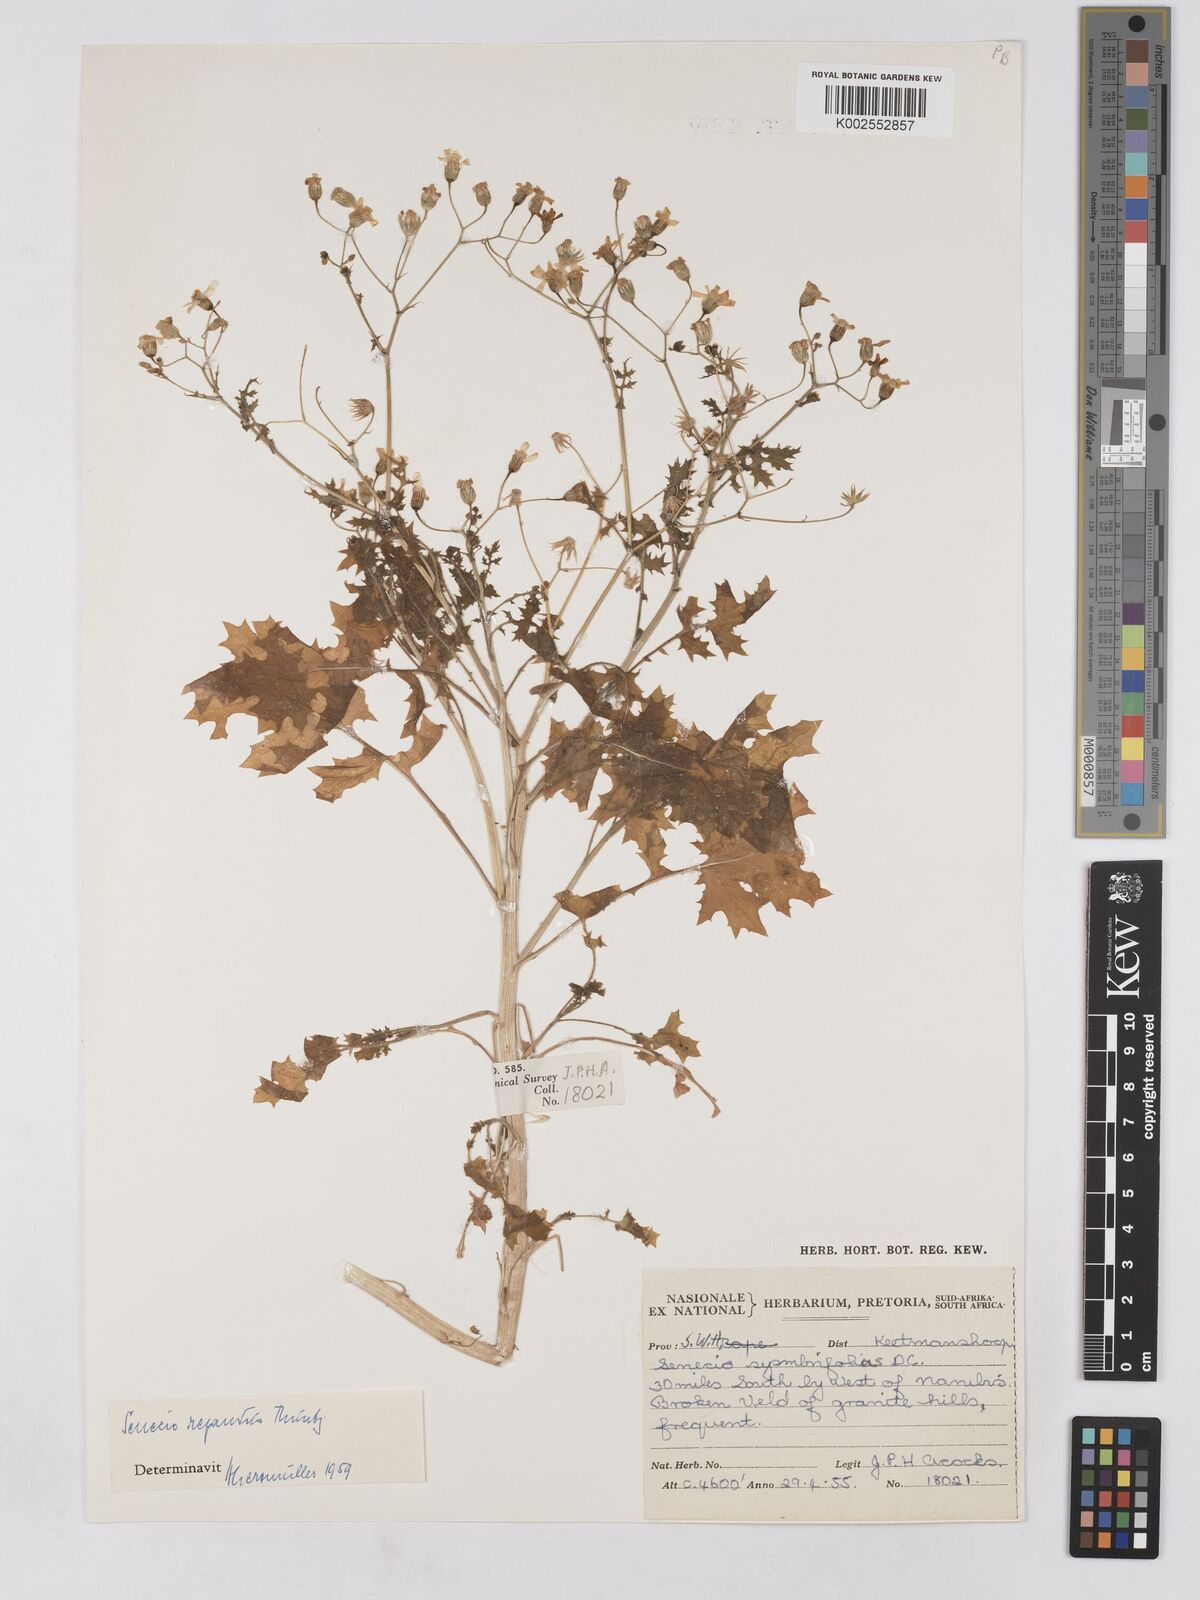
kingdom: Plantae
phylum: Tracheophyta
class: Magnoliopsida
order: Asterales
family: Asteraceae
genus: Senecio
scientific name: Senecio repandus
